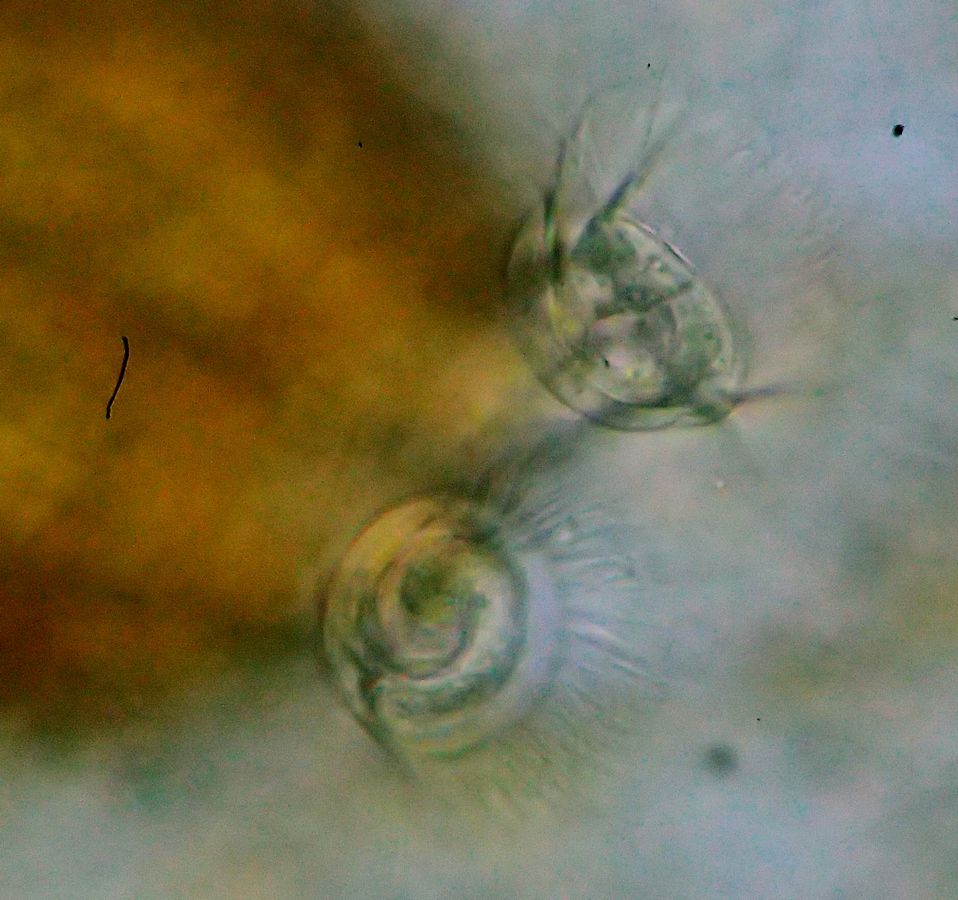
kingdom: Chromista
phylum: Ciliophora
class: Oligohymenophorea
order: Peritrichida
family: Vaginicolidae
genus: Platycola
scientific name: Platycola decumbens
